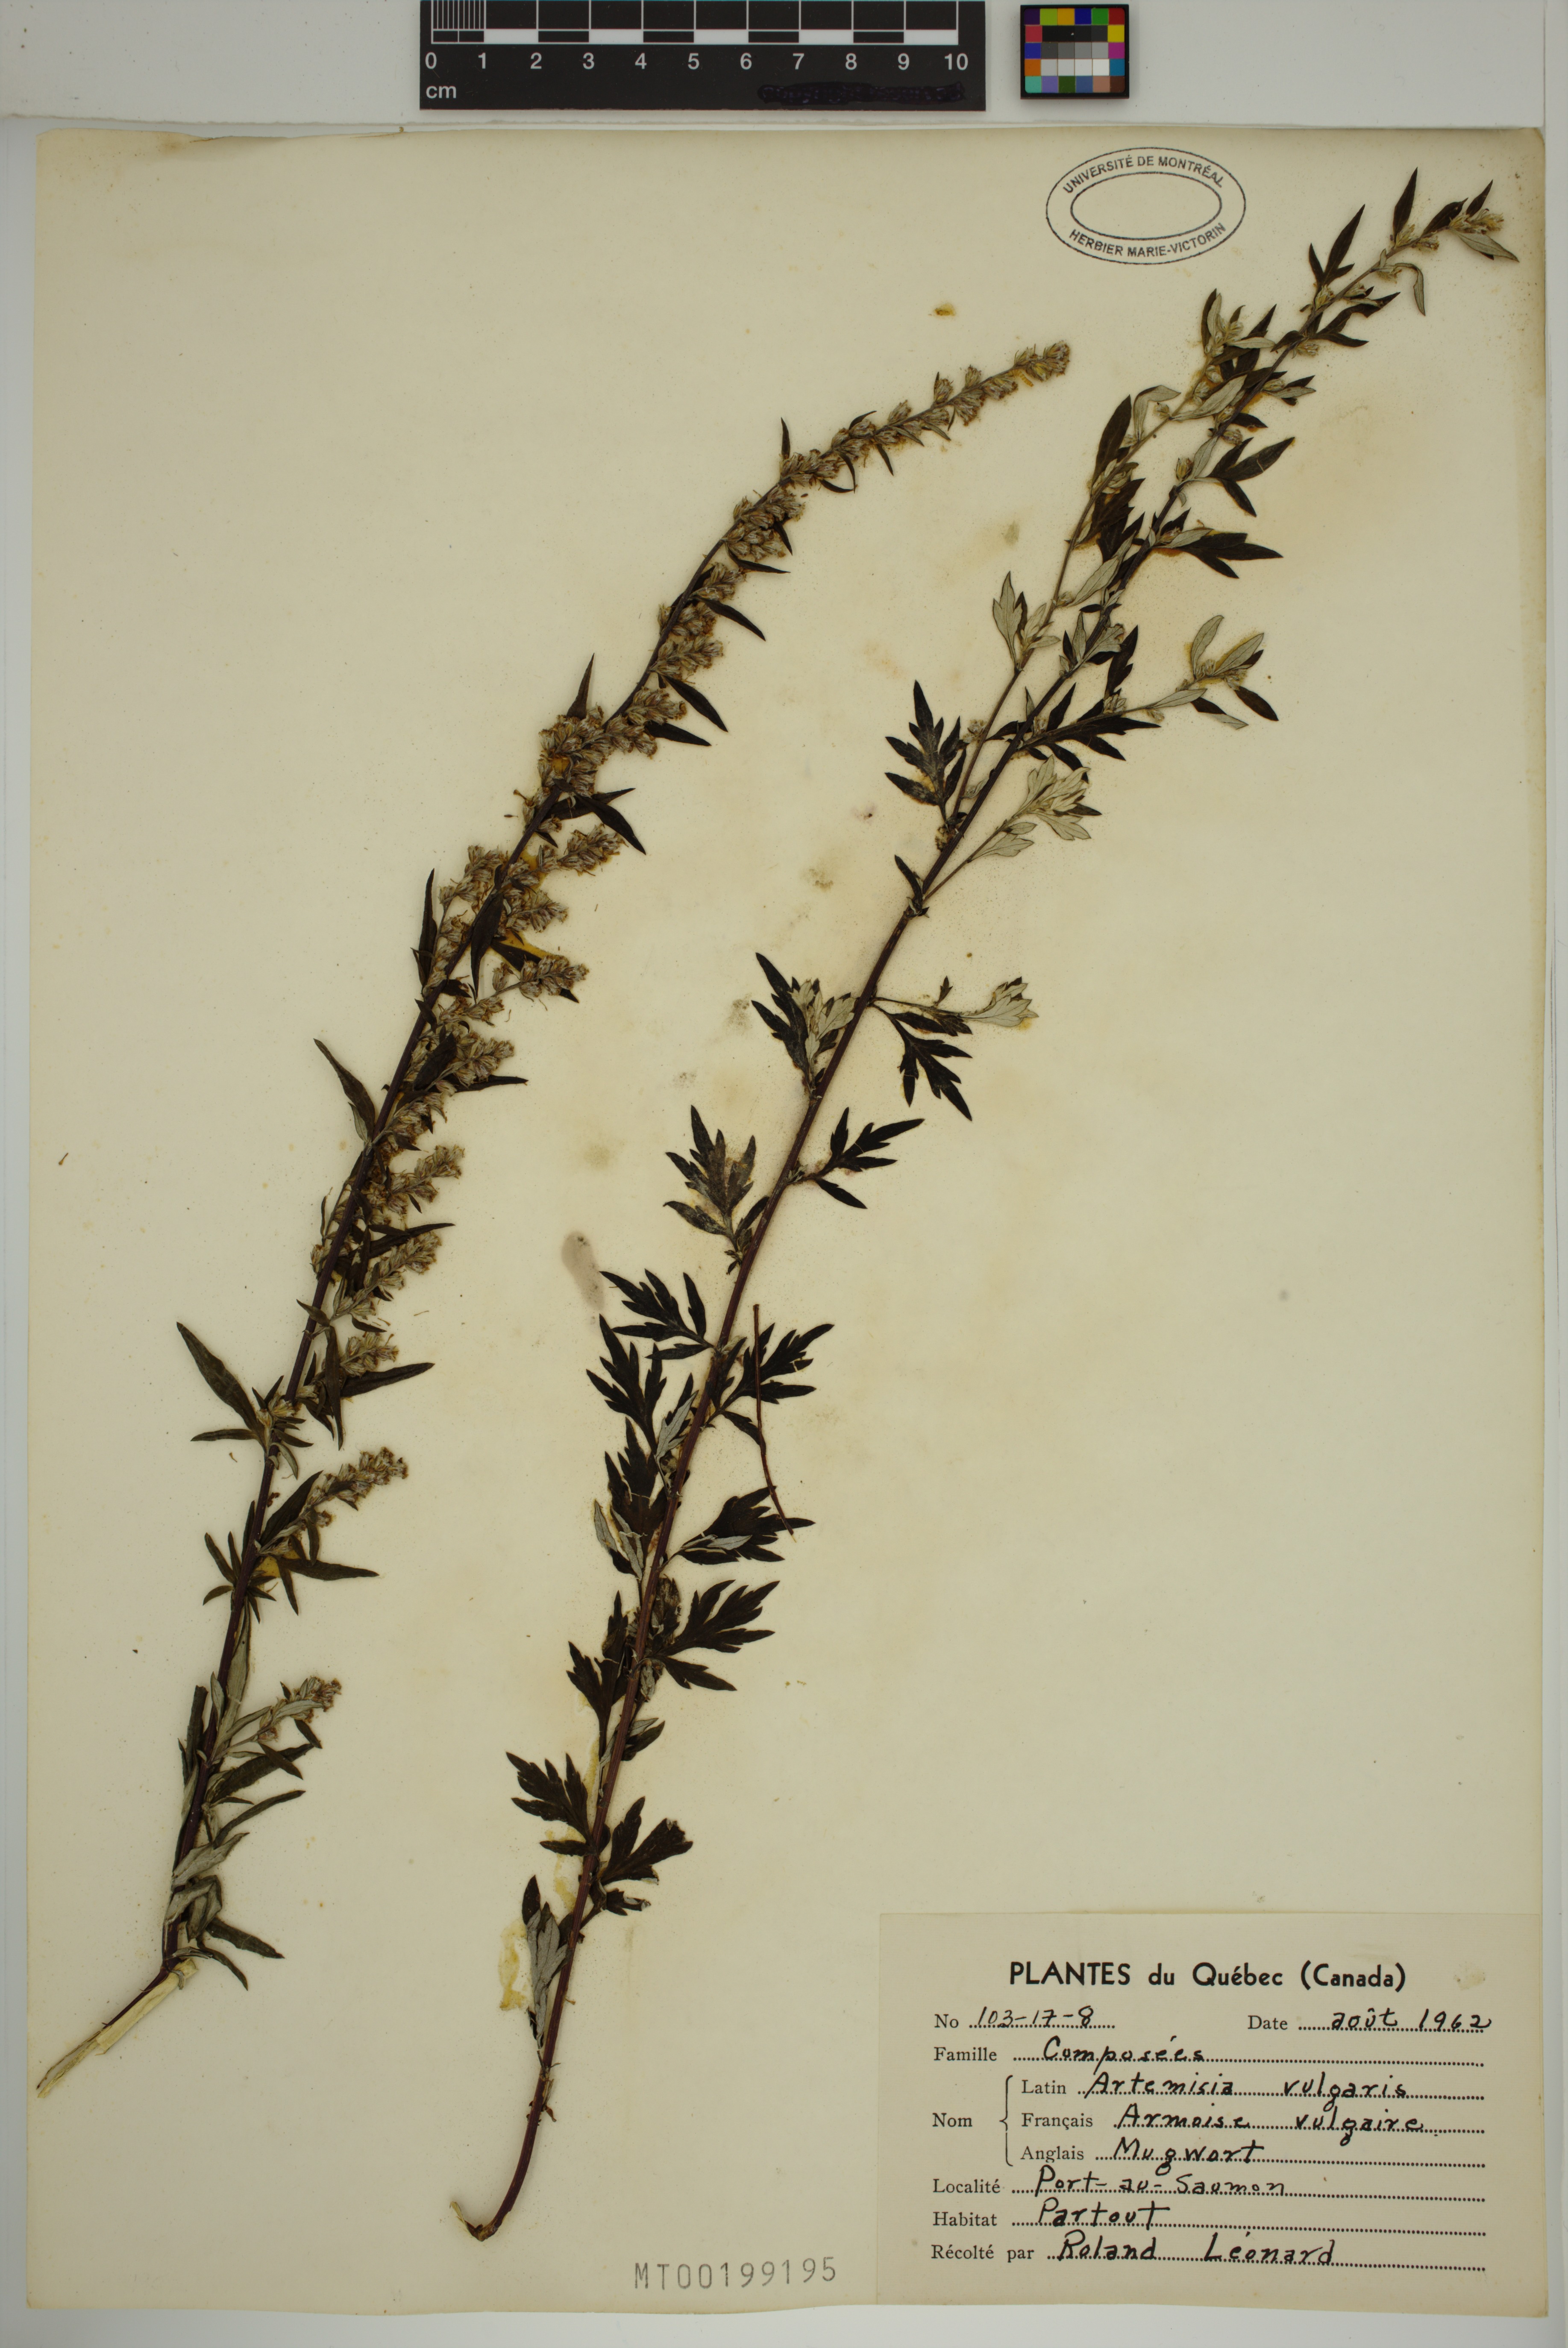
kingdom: Plantae
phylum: Tracheophyta
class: Magnoliopsida
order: Asterales
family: Asteraceae
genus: Artemisia
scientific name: Artemisia vulgaris
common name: Mugwort
